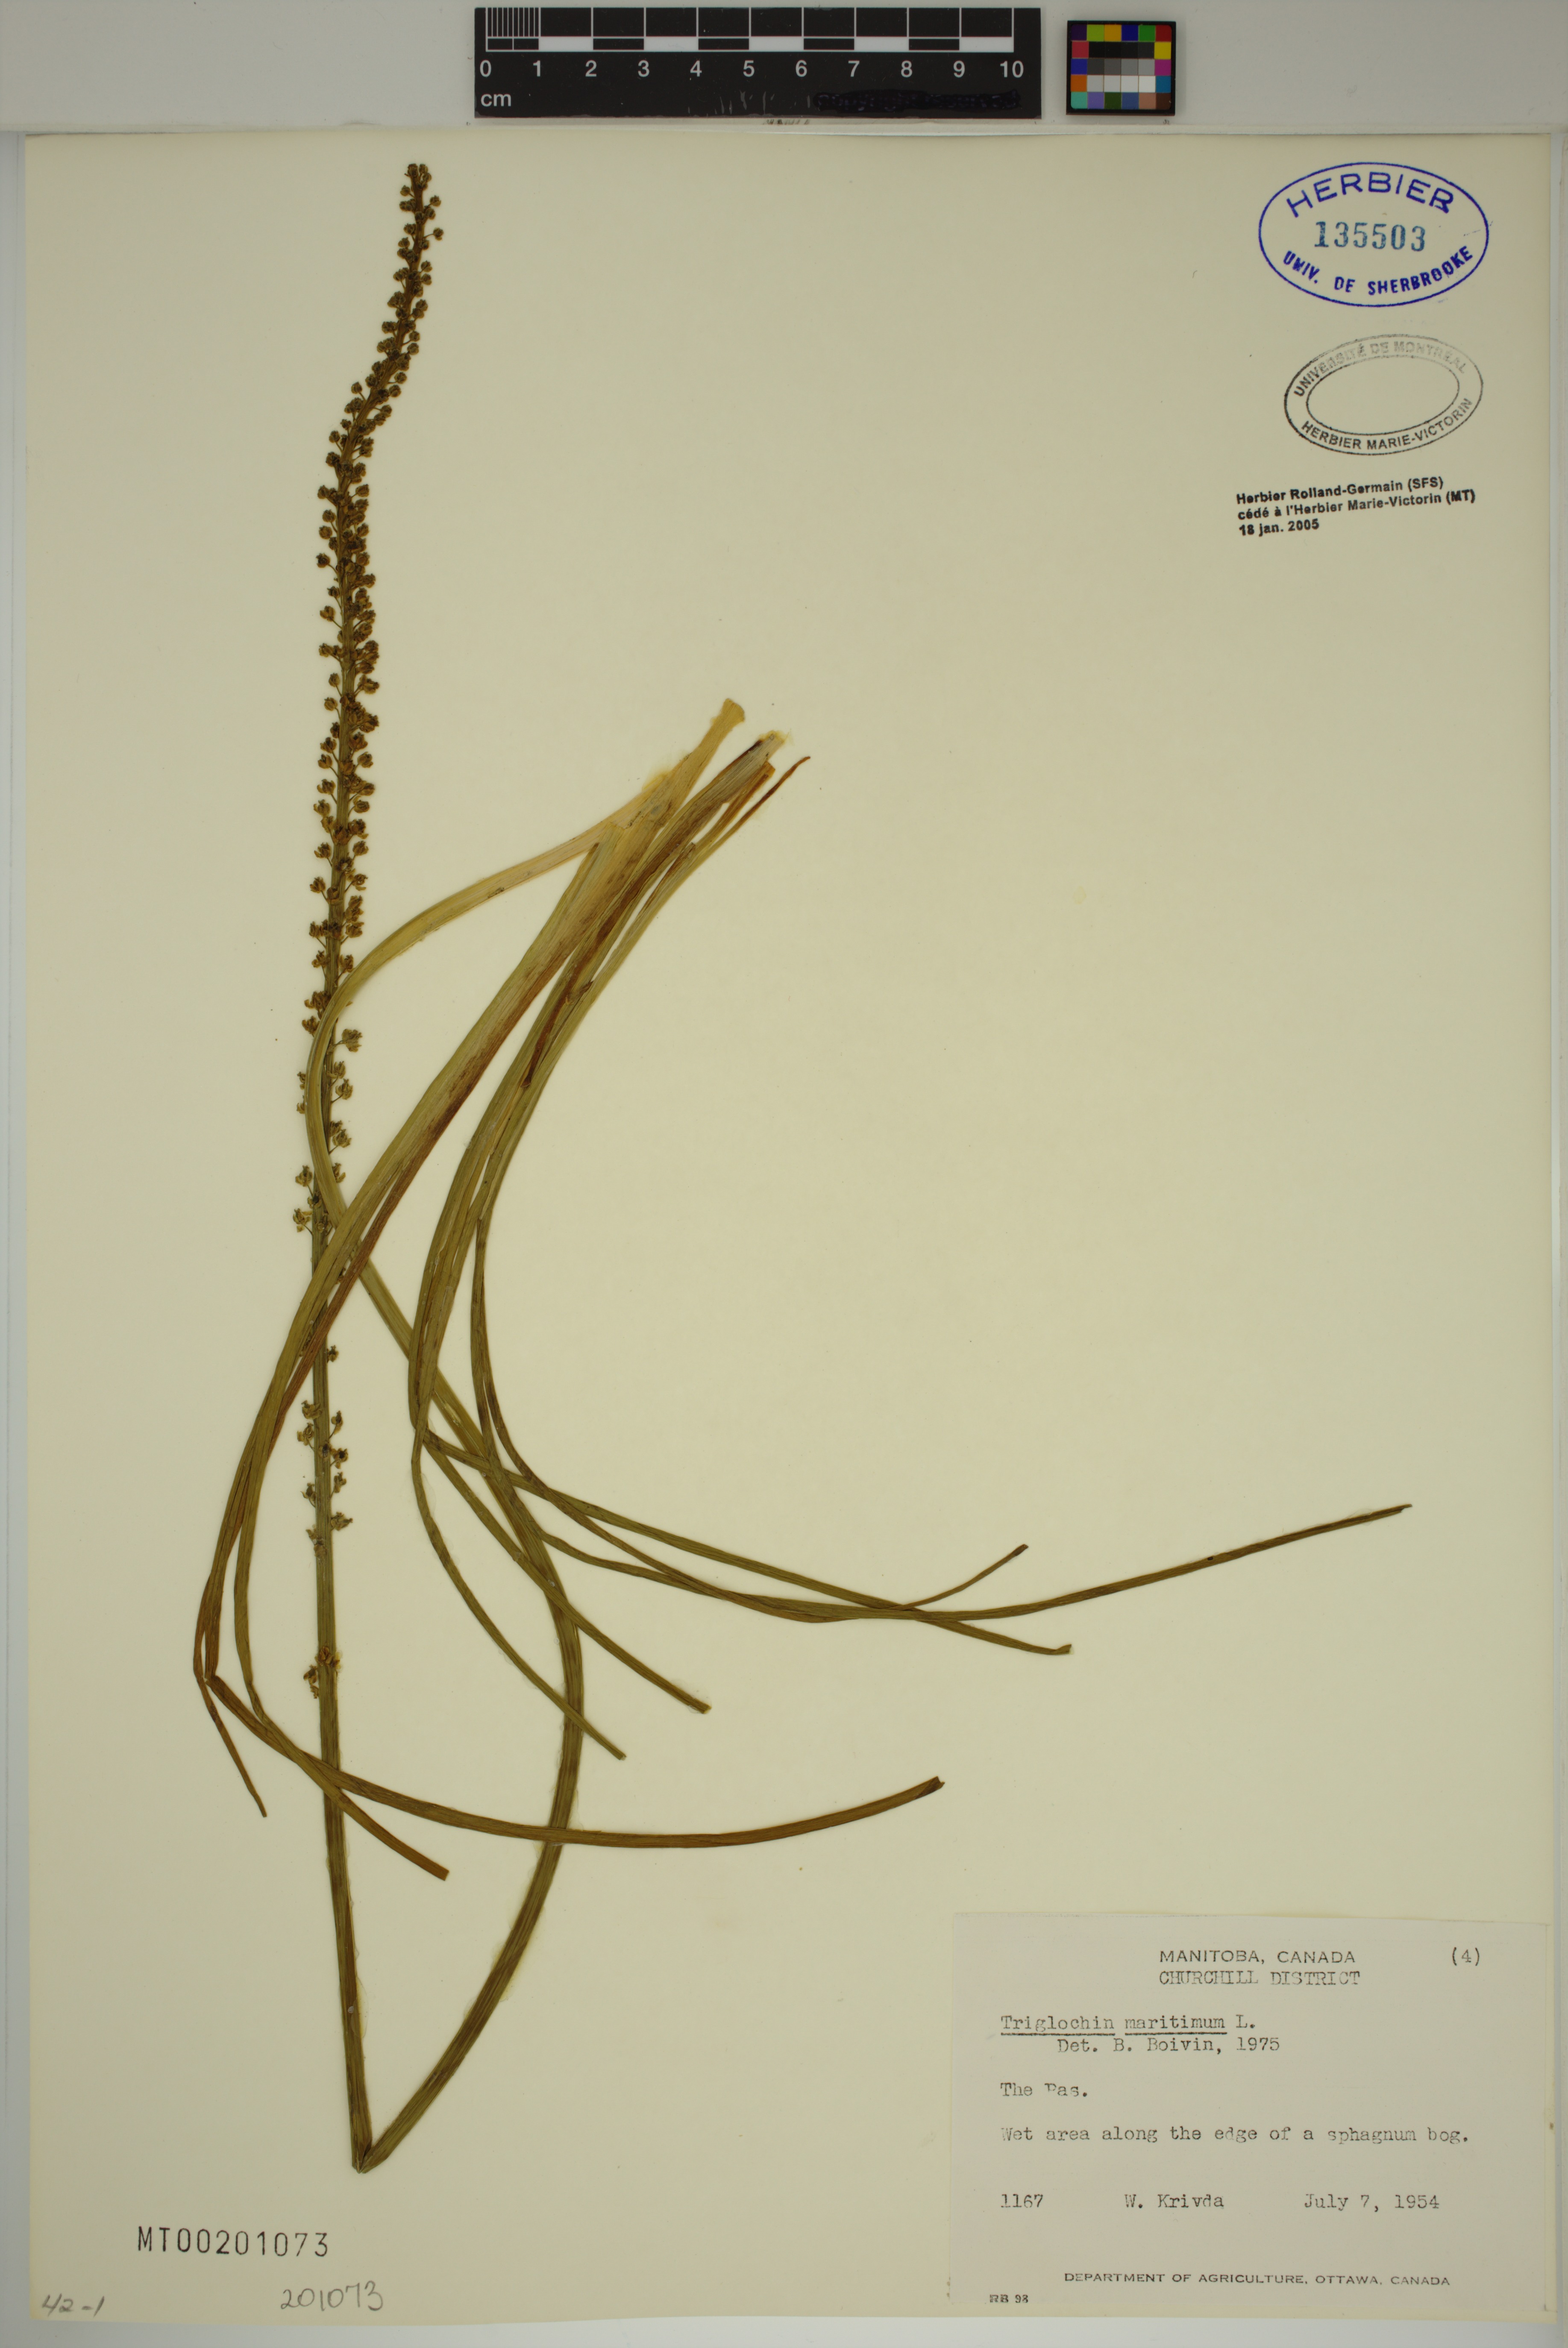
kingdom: Plantae
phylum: Tracheophyta
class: Liliopsida
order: Alismatales
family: Juncaginaceae
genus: Triglochin
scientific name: Triglochin maritima
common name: Sea arrowgrass
